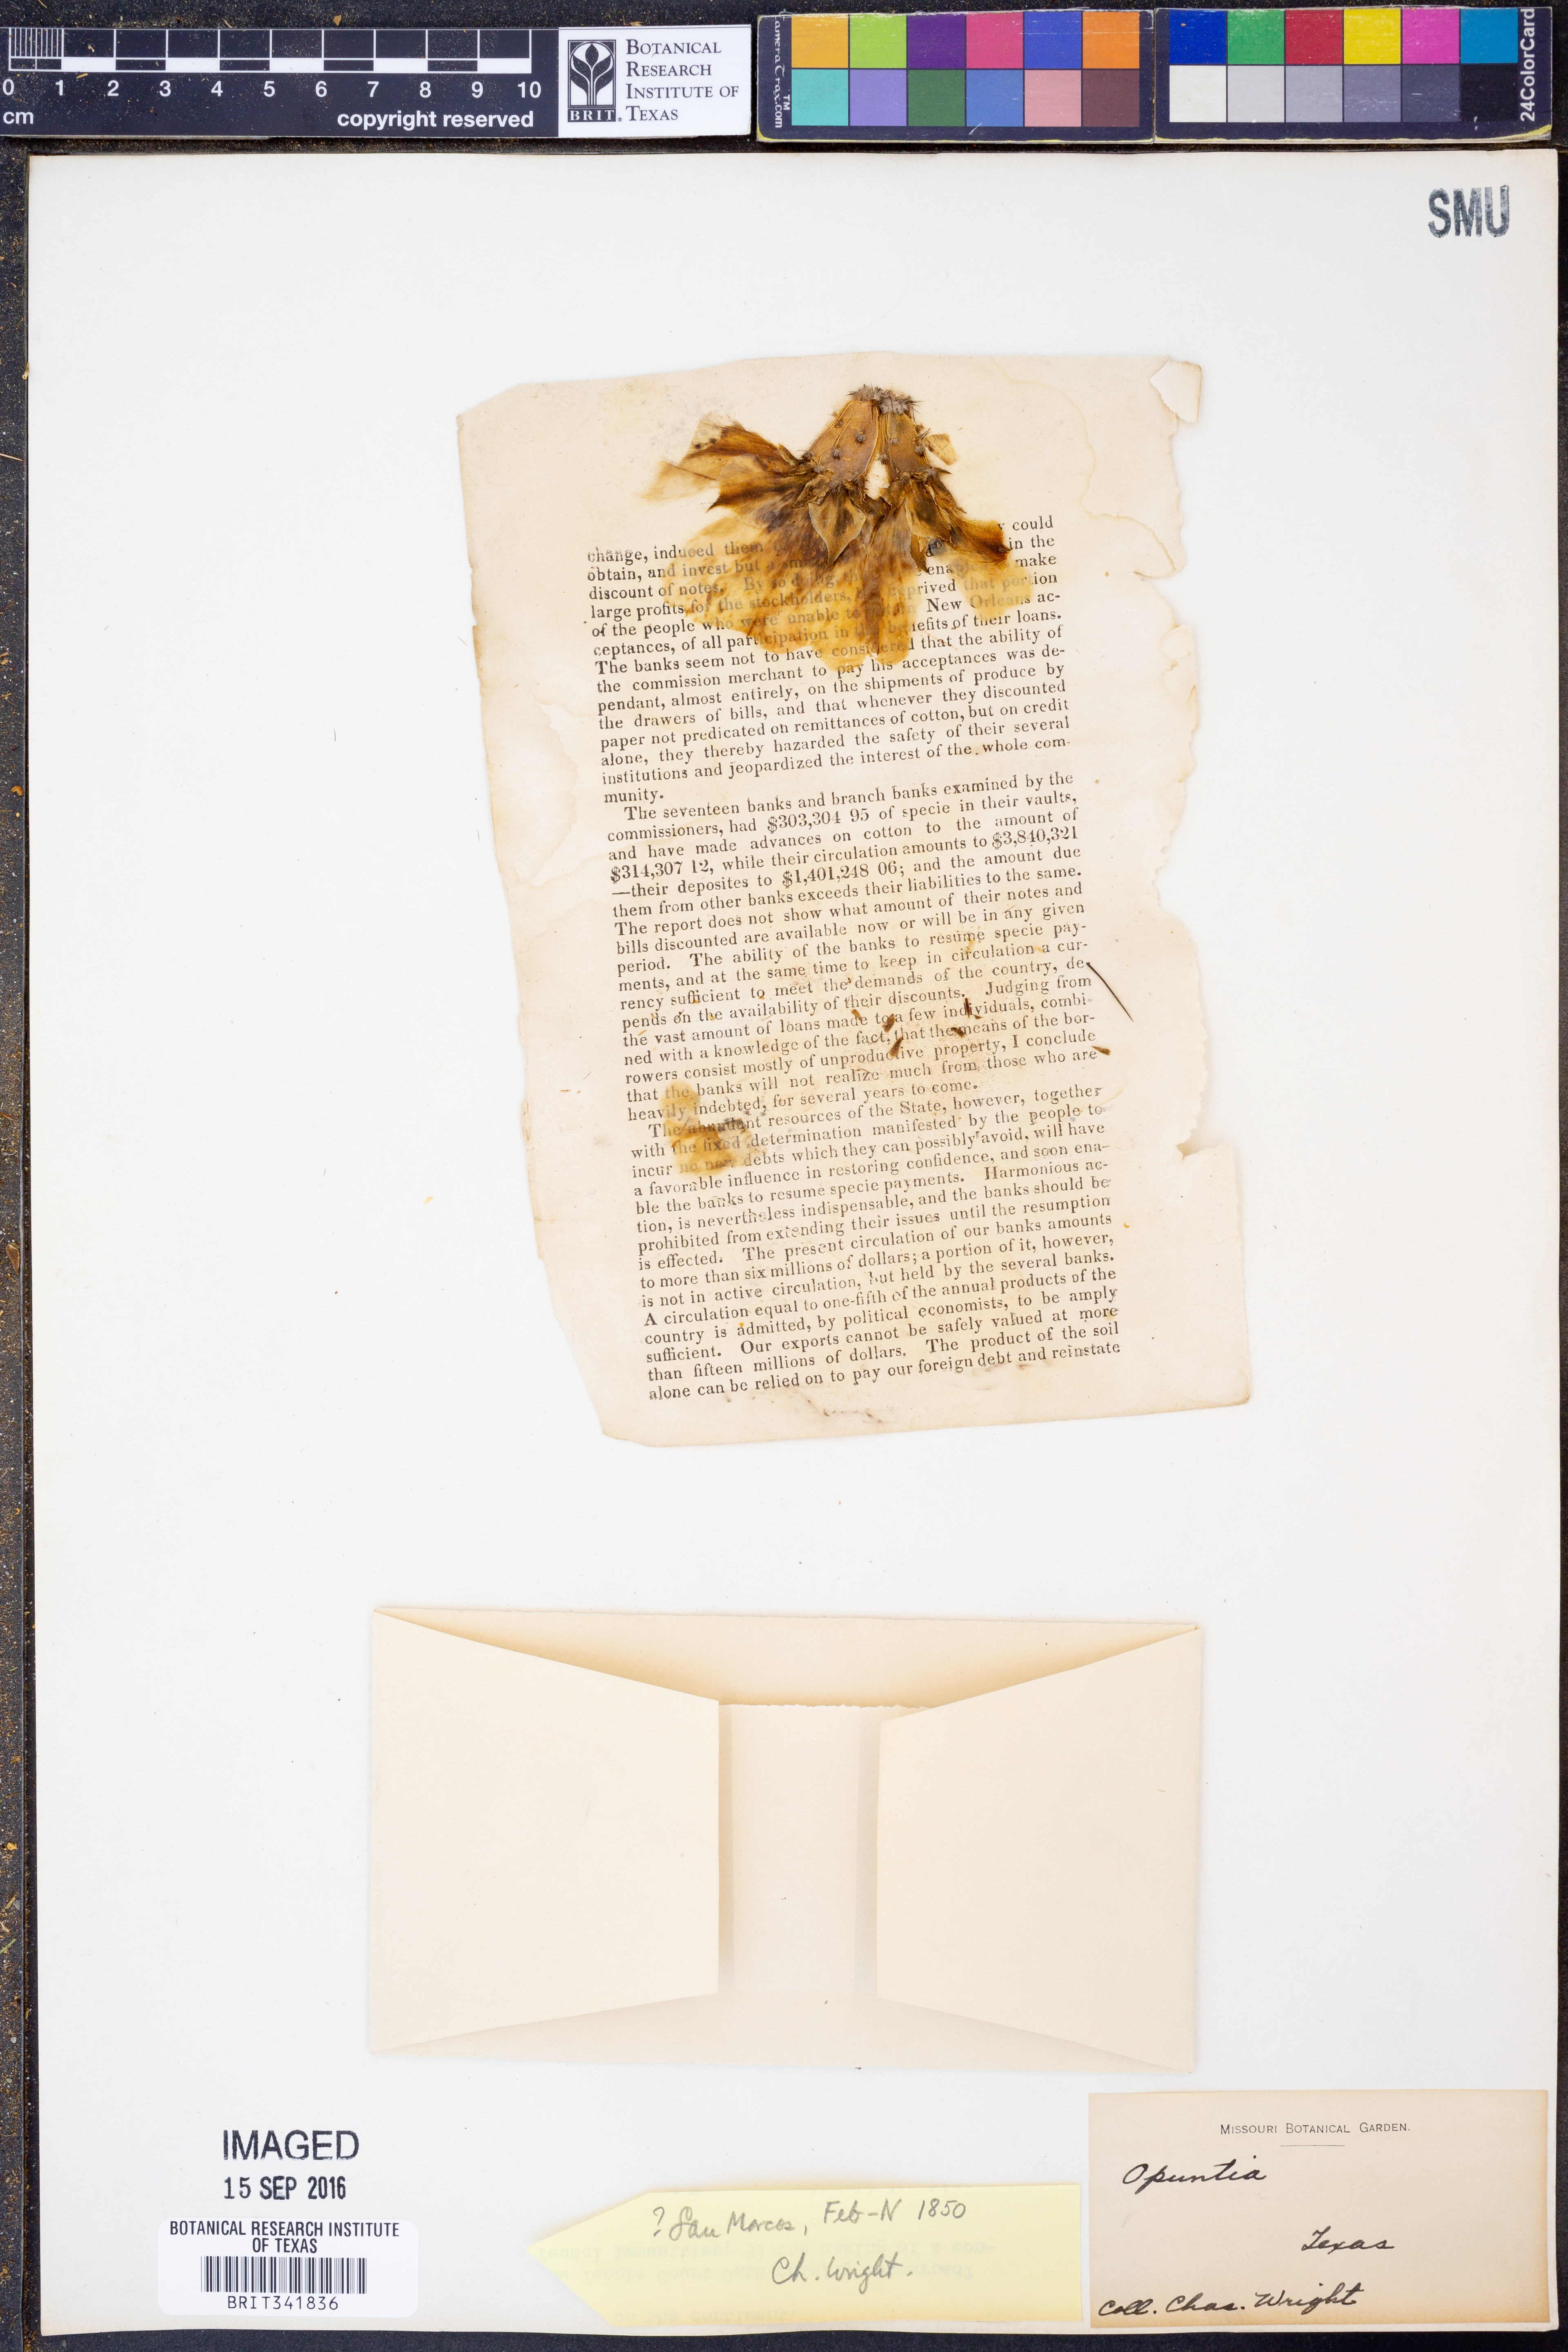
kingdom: Plantae
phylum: Tracheophyta
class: Magnoliopsida
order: Caryophyllales
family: Cactaceae
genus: Opuntia
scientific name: Opuntia
